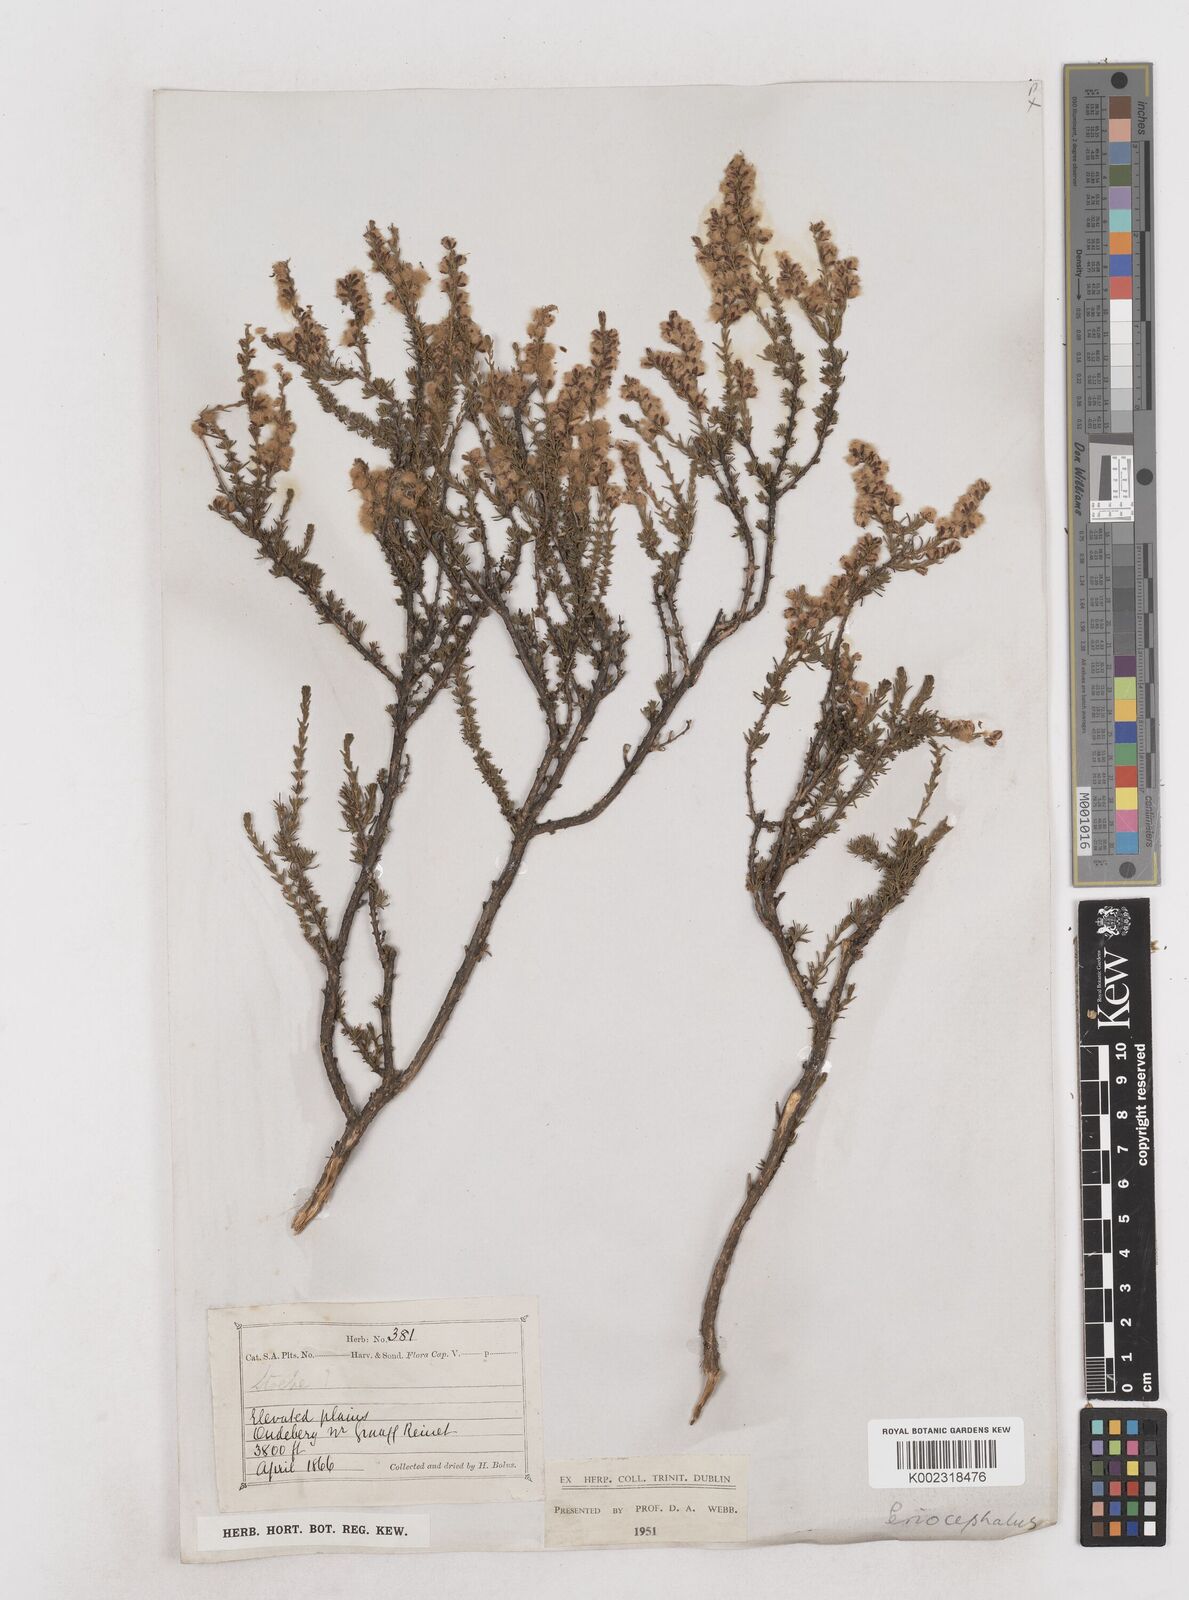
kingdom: Plantae
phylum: Tracheophyta
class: Magnoliopsida
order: Asterales
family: Asteraceae
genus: Eriocephalus
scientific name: Eriocephalus
